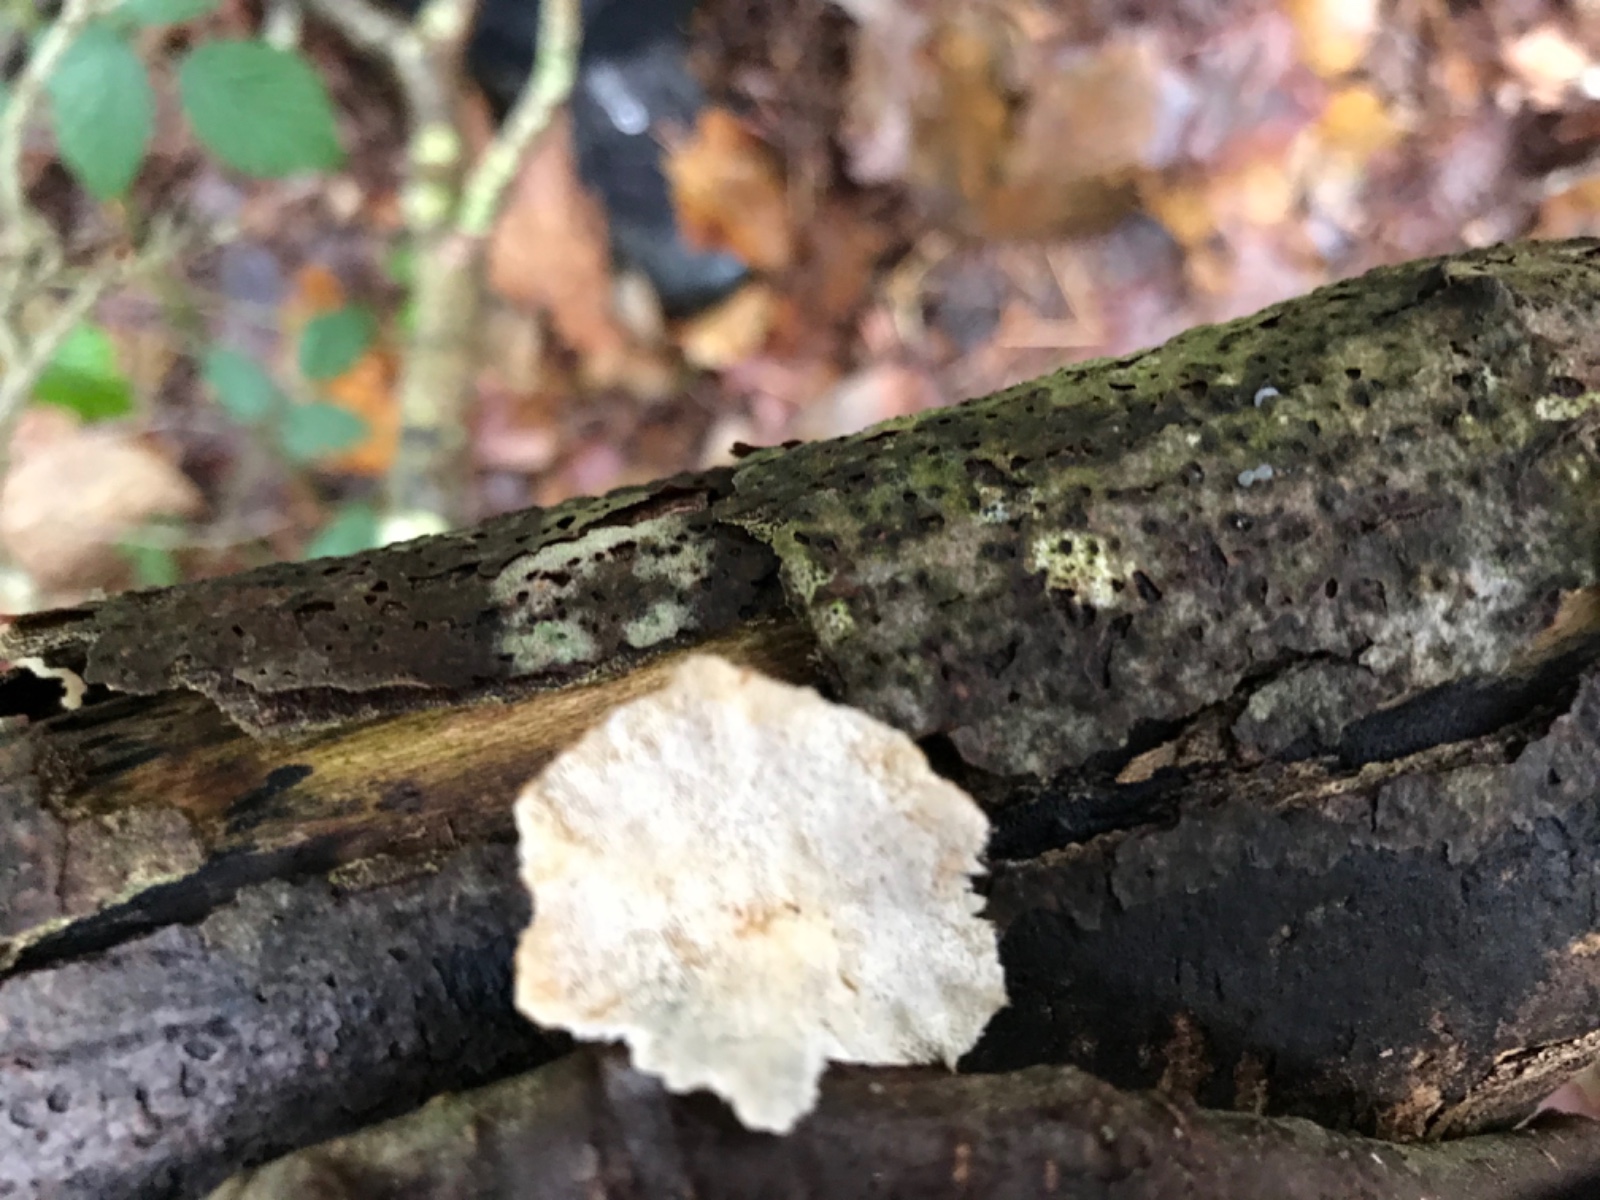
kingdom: Fungi
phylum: Basidiomycota
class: Agaricomycetes
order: Polyporales
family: Polyporaceae
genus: Trametes
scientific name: Trametes ochracea
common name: bæltet læderporesvamp
